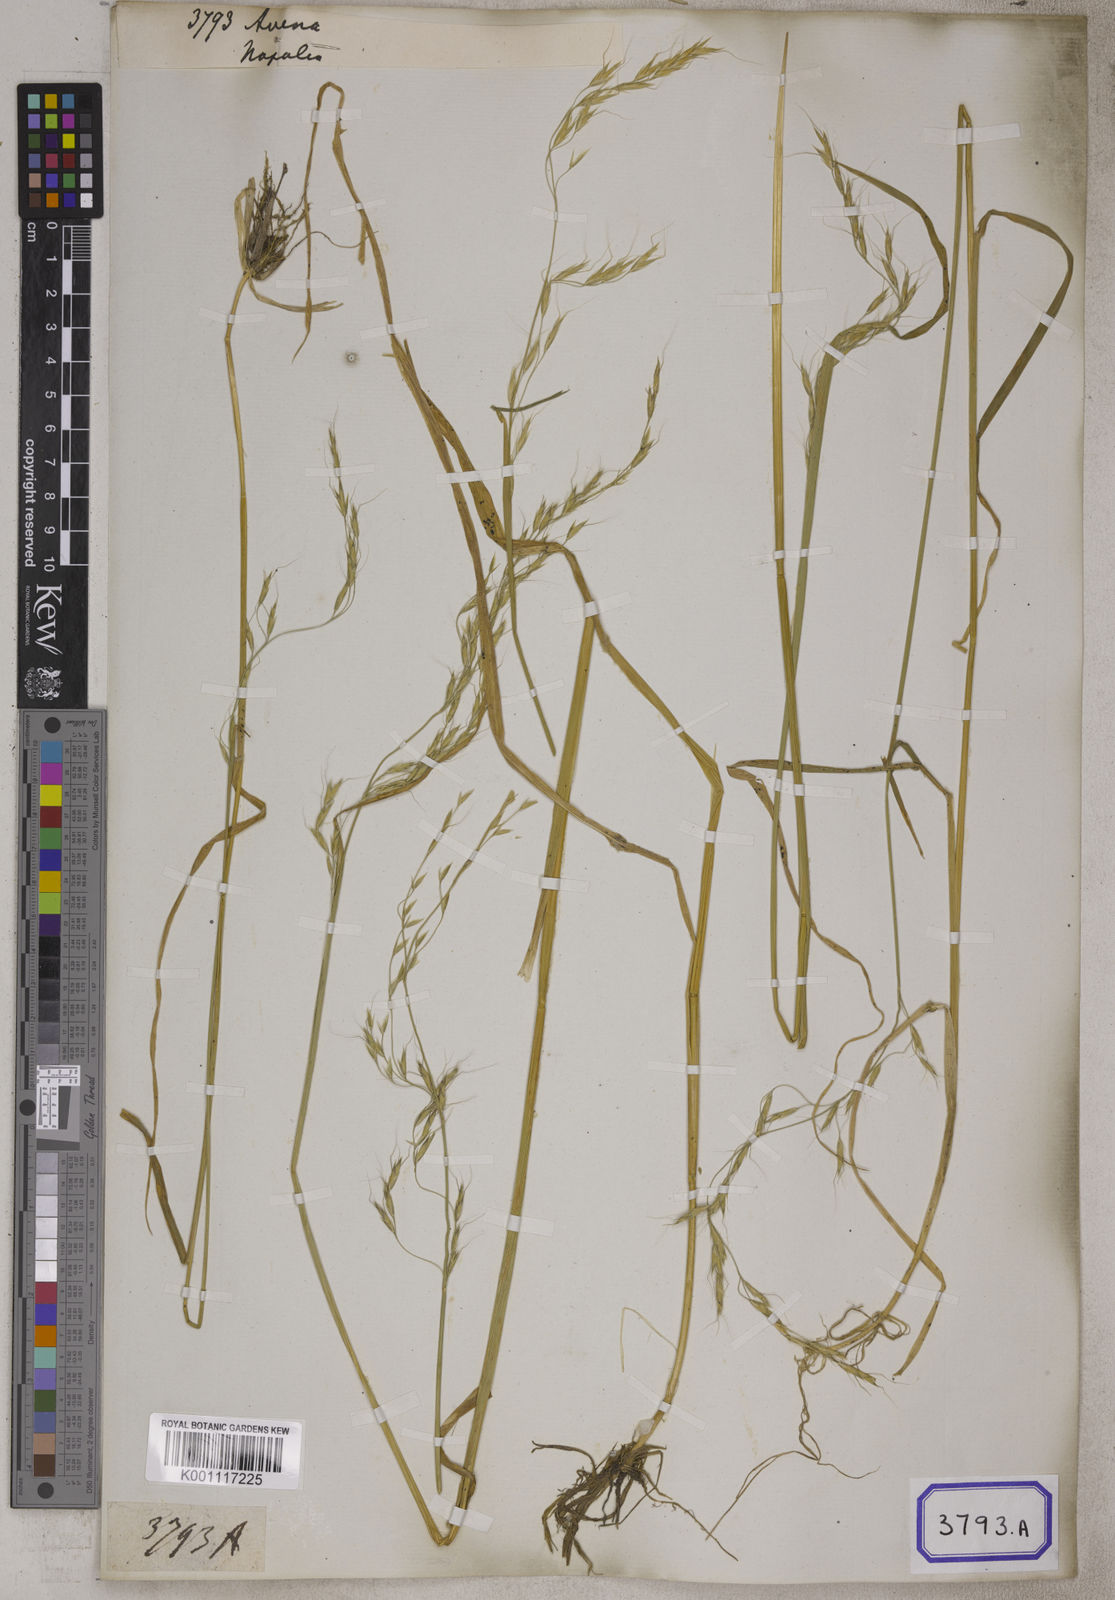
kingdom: Plantae
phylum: Tracheophyta
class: Liliopsida
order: Poales
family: Poaceae
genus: Avena
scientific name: Avena
